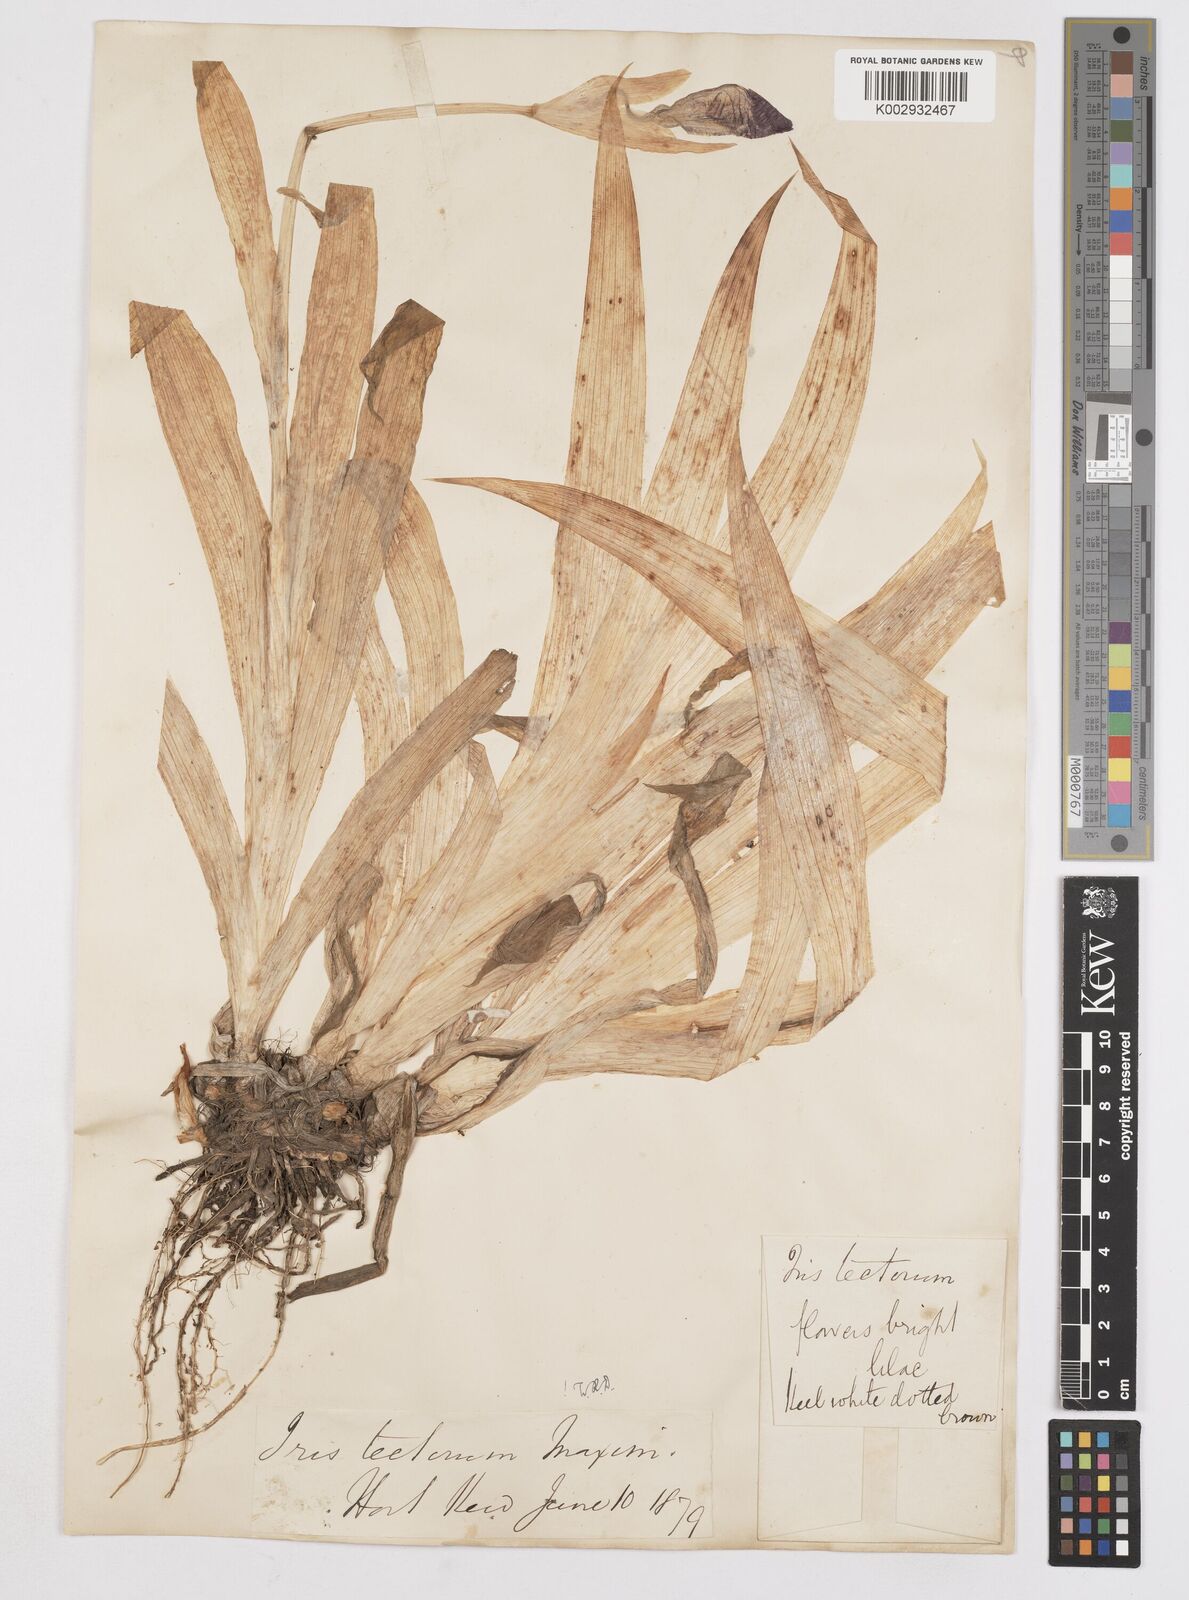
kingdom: Plantae
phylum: Tracheophyta
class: Liliopsida
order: Asparagales
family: Iridaceae
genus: Iris
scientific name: Iris tectorum
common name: Wall iris
